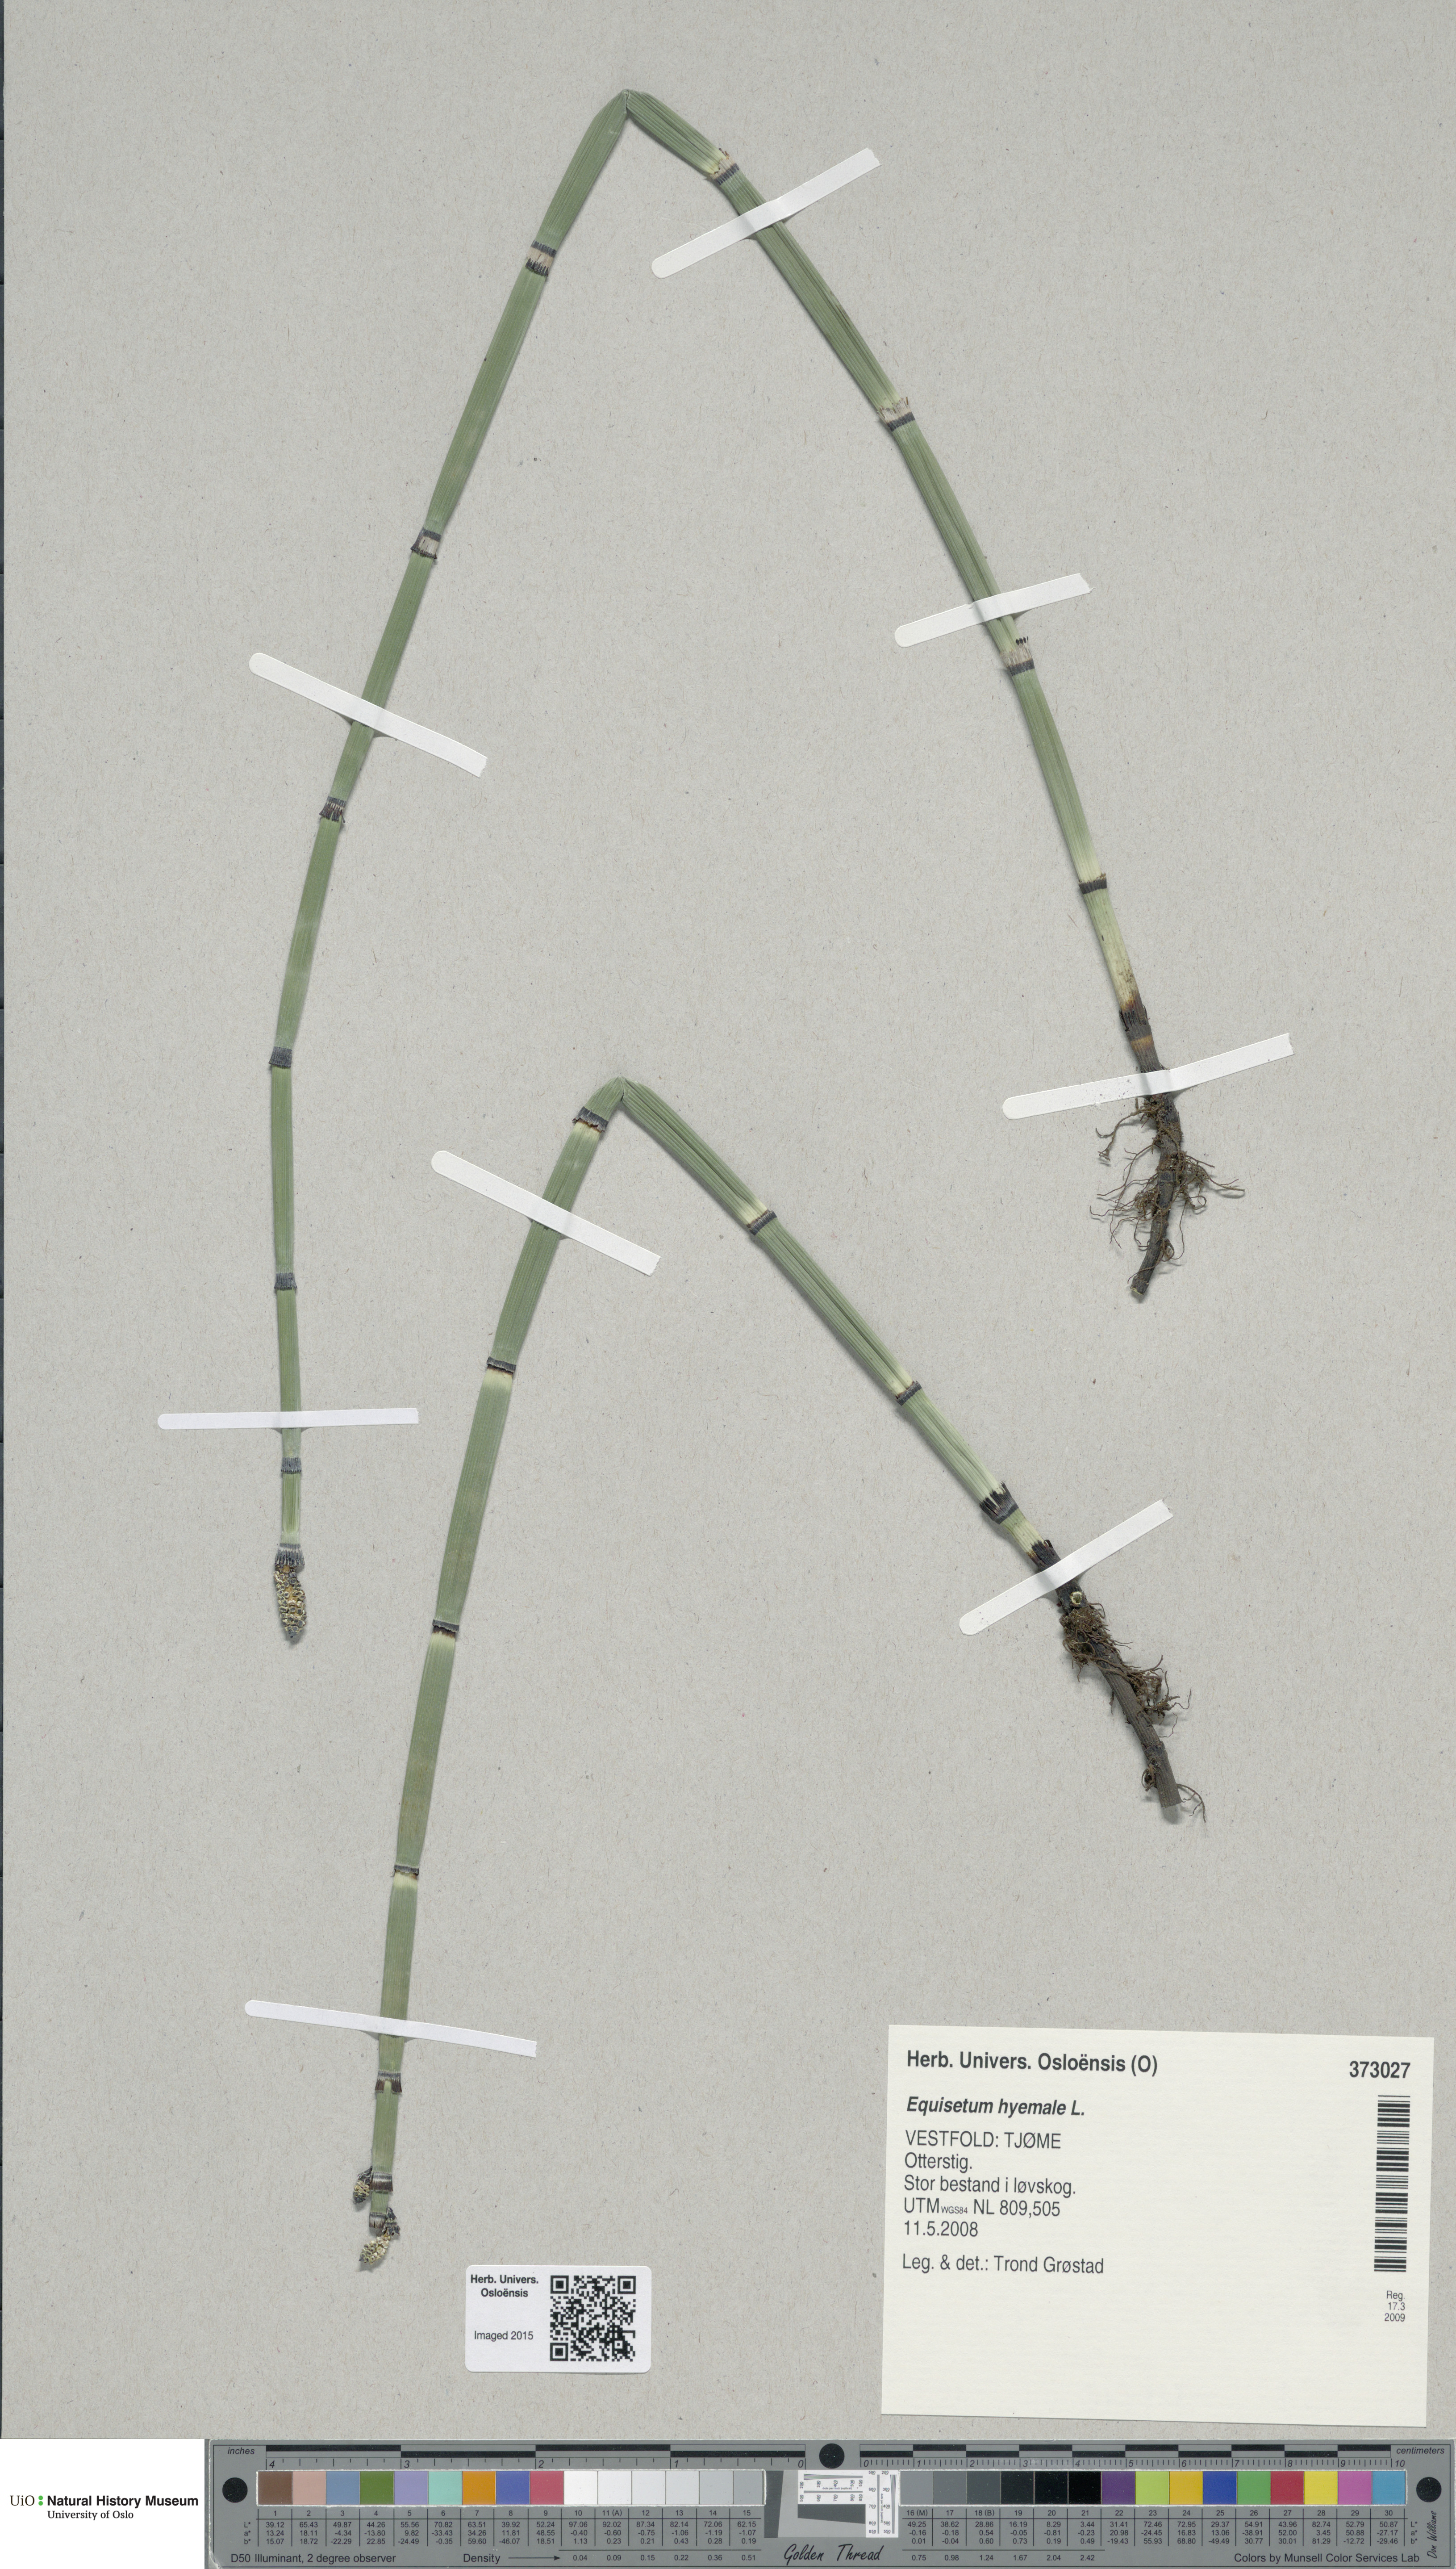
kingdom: Plantae
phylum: Tracheophyta
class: Polypodiopsida
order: Equisetales
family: Equisetaceae
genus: Equisetum
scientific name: Equisetum hyemale
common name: Rough horsetail
